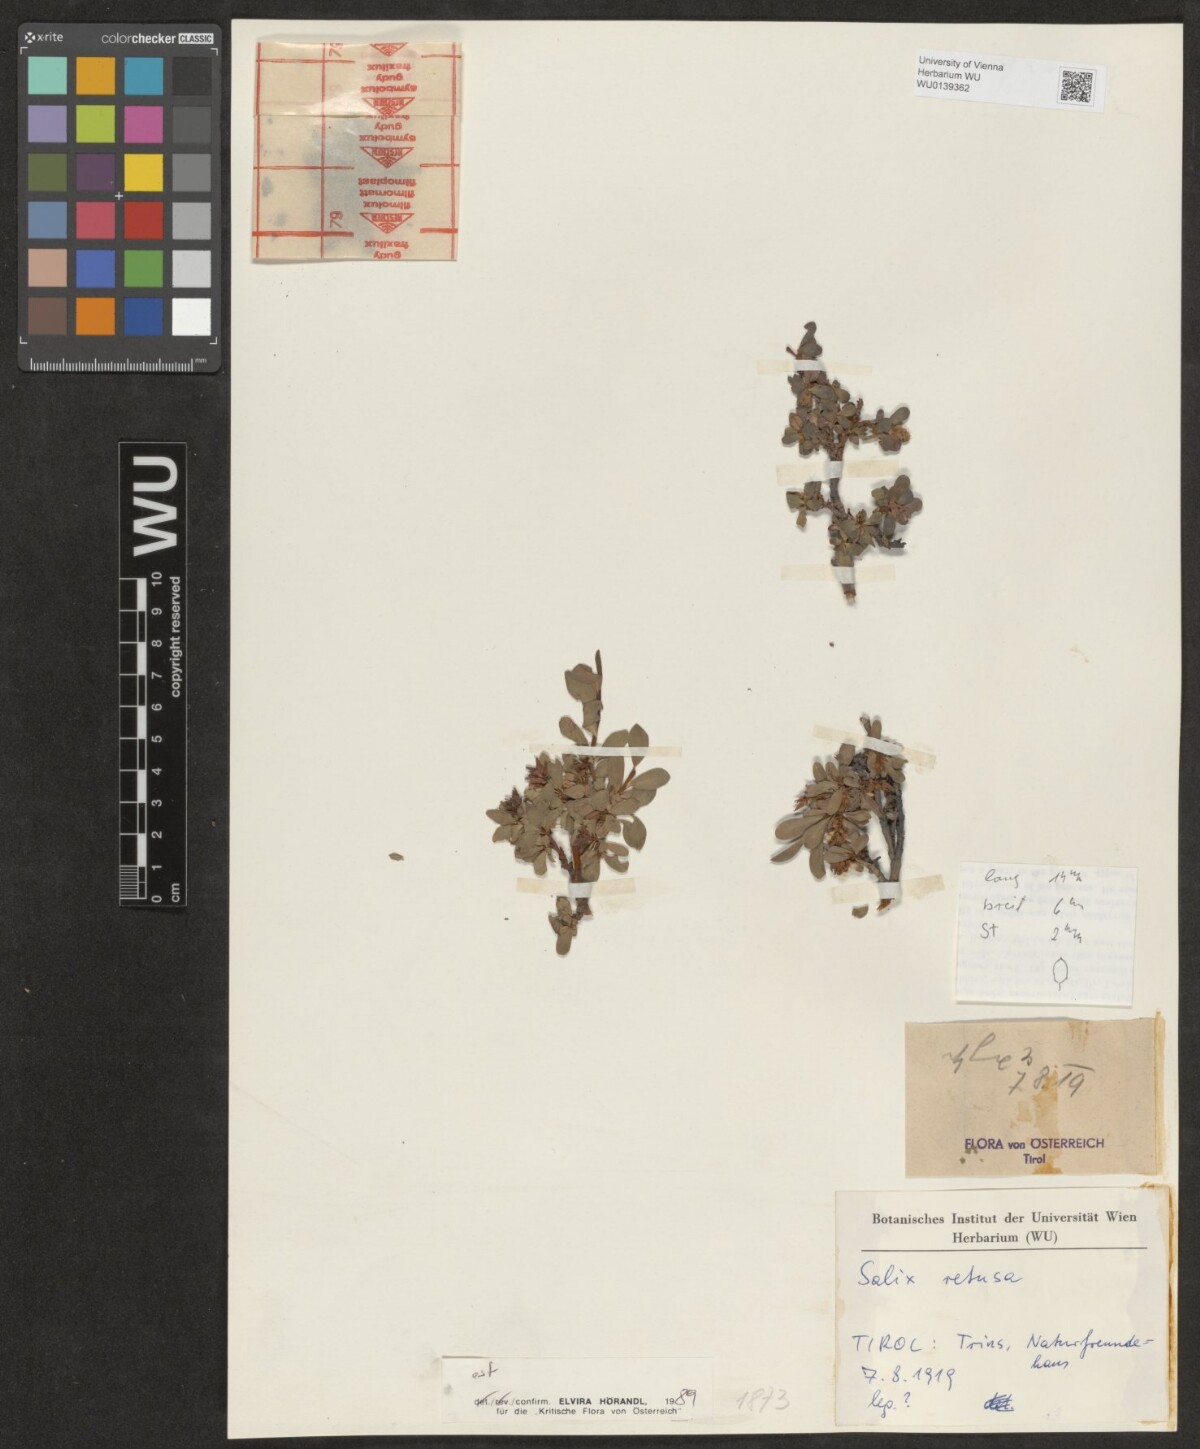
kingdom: Plantae
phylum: Tracheophyta
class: Magnoliopsida
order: Malpighiales
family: Salicaceae
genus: Salix
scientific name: Salix retusa
